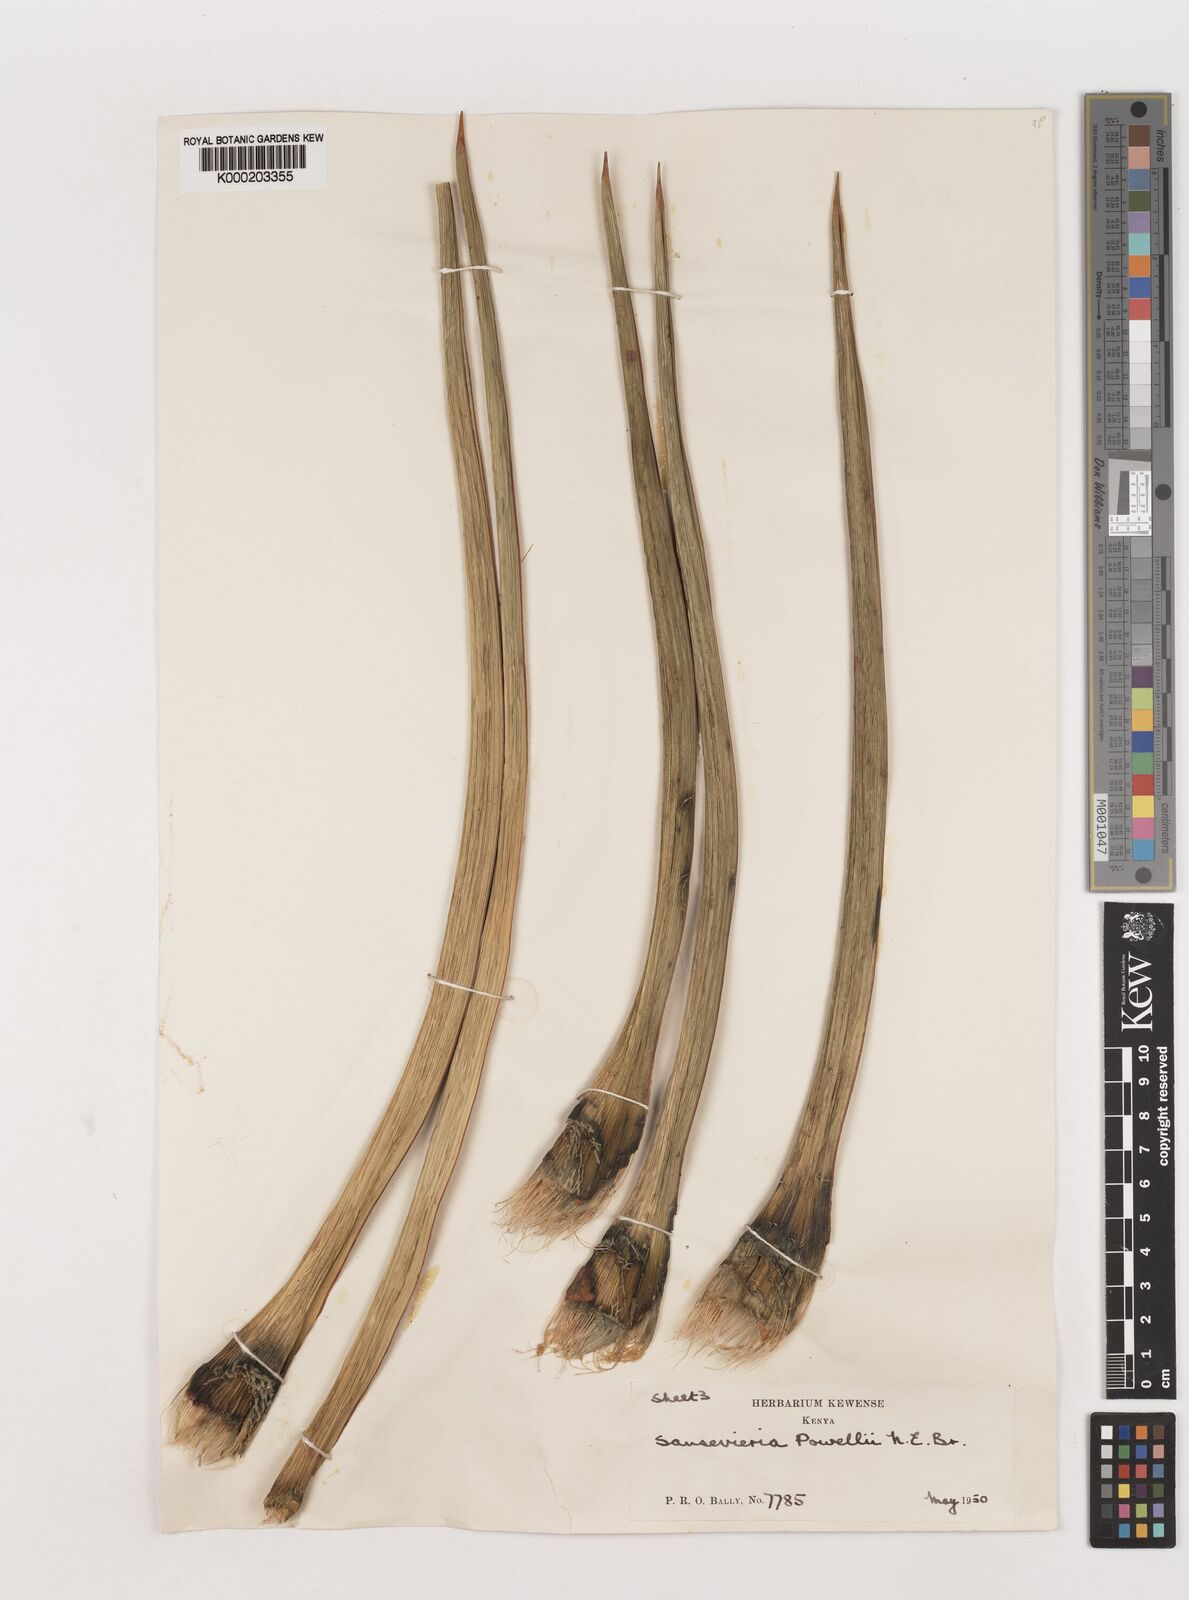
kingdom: Plantae
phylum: Tracheophyta
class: Liliopsida
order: Asparagales
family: Asparagaceae
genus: Dracaena
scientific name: Dracaena powellii
